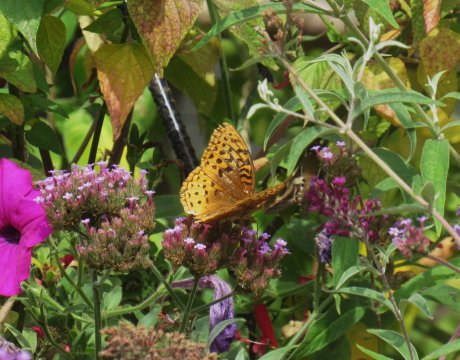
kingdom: Animalia
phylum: Arthropoda
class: Insecta
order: Lepidoptera
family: Nymphalidae
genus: Speyeria
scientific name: Speyeria cybele
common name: Great Spangled Fritillary
